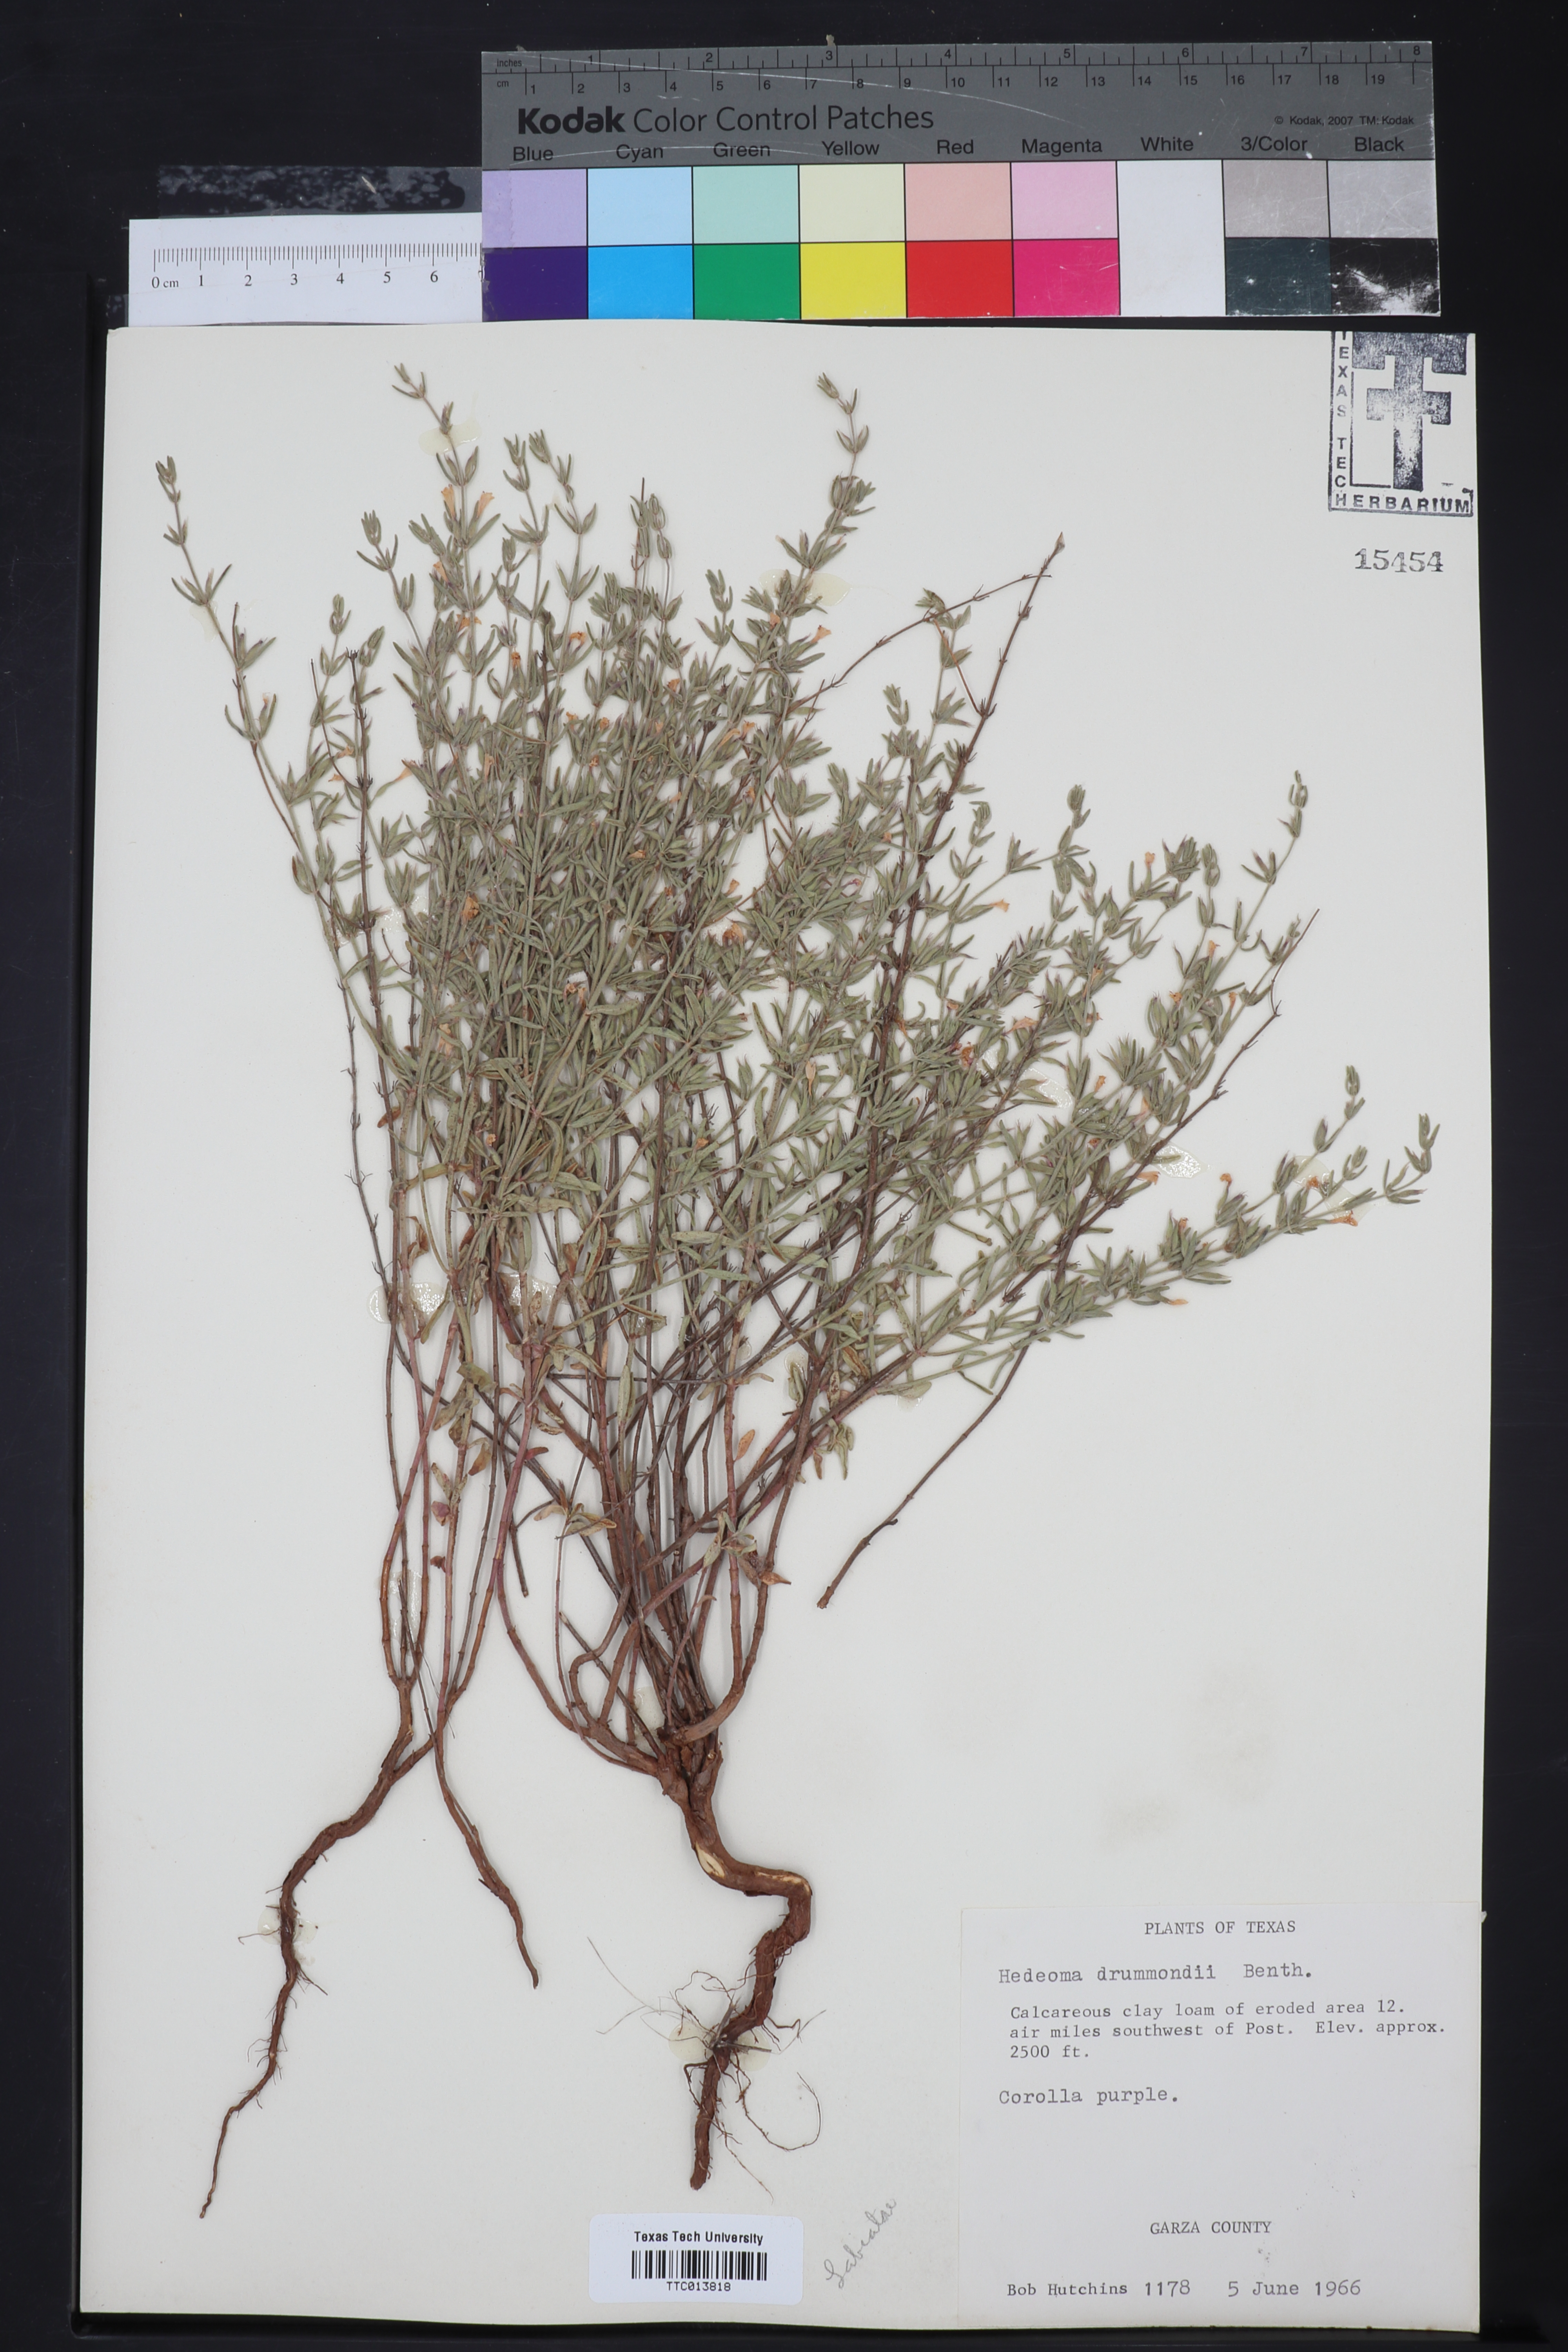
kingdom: Plantae
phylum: Tracheophyta
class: Magnoliopsida
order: Lamiales
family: Lamiaceae
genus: Hedeoma
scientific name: Hedeoma drummondii
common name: New mexico pennyroyal
